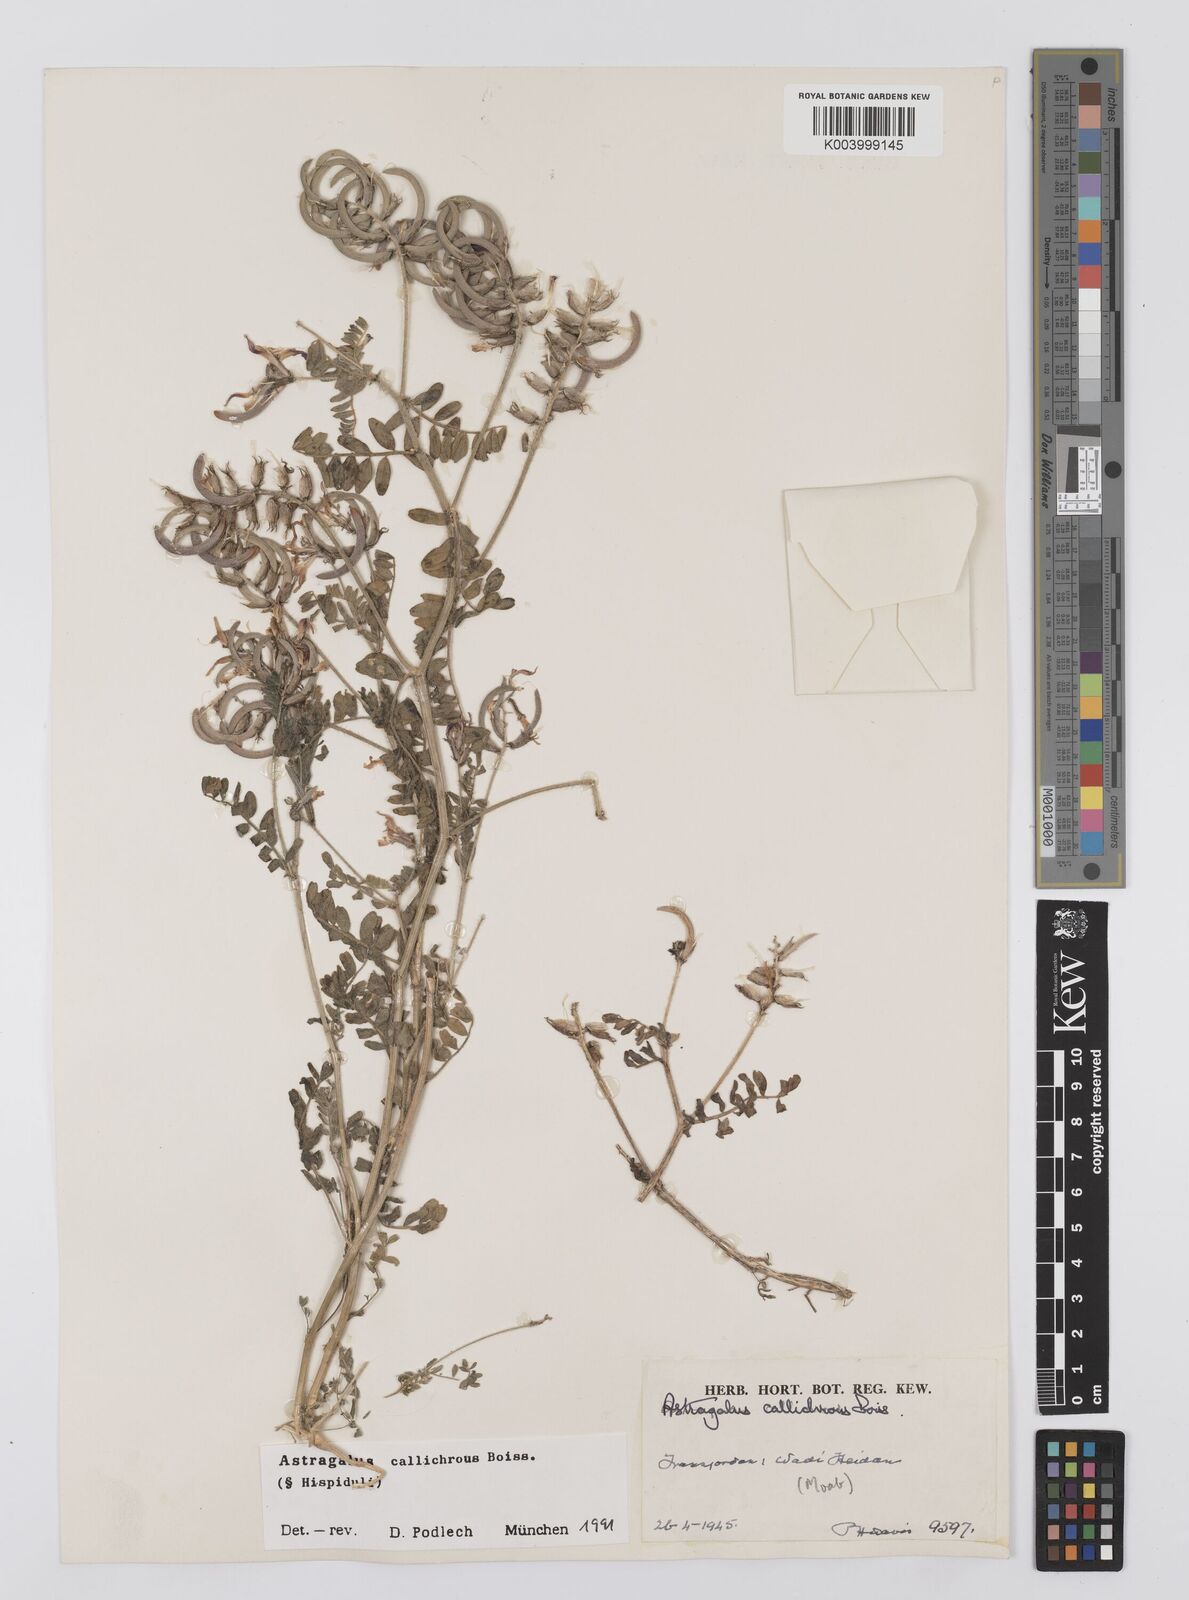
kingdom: Plantae
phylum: Tracheophyta
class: Magnoliopsida
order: Fabales
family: Fabaceae
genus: Astragalus
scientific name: Astragalus callichrous
